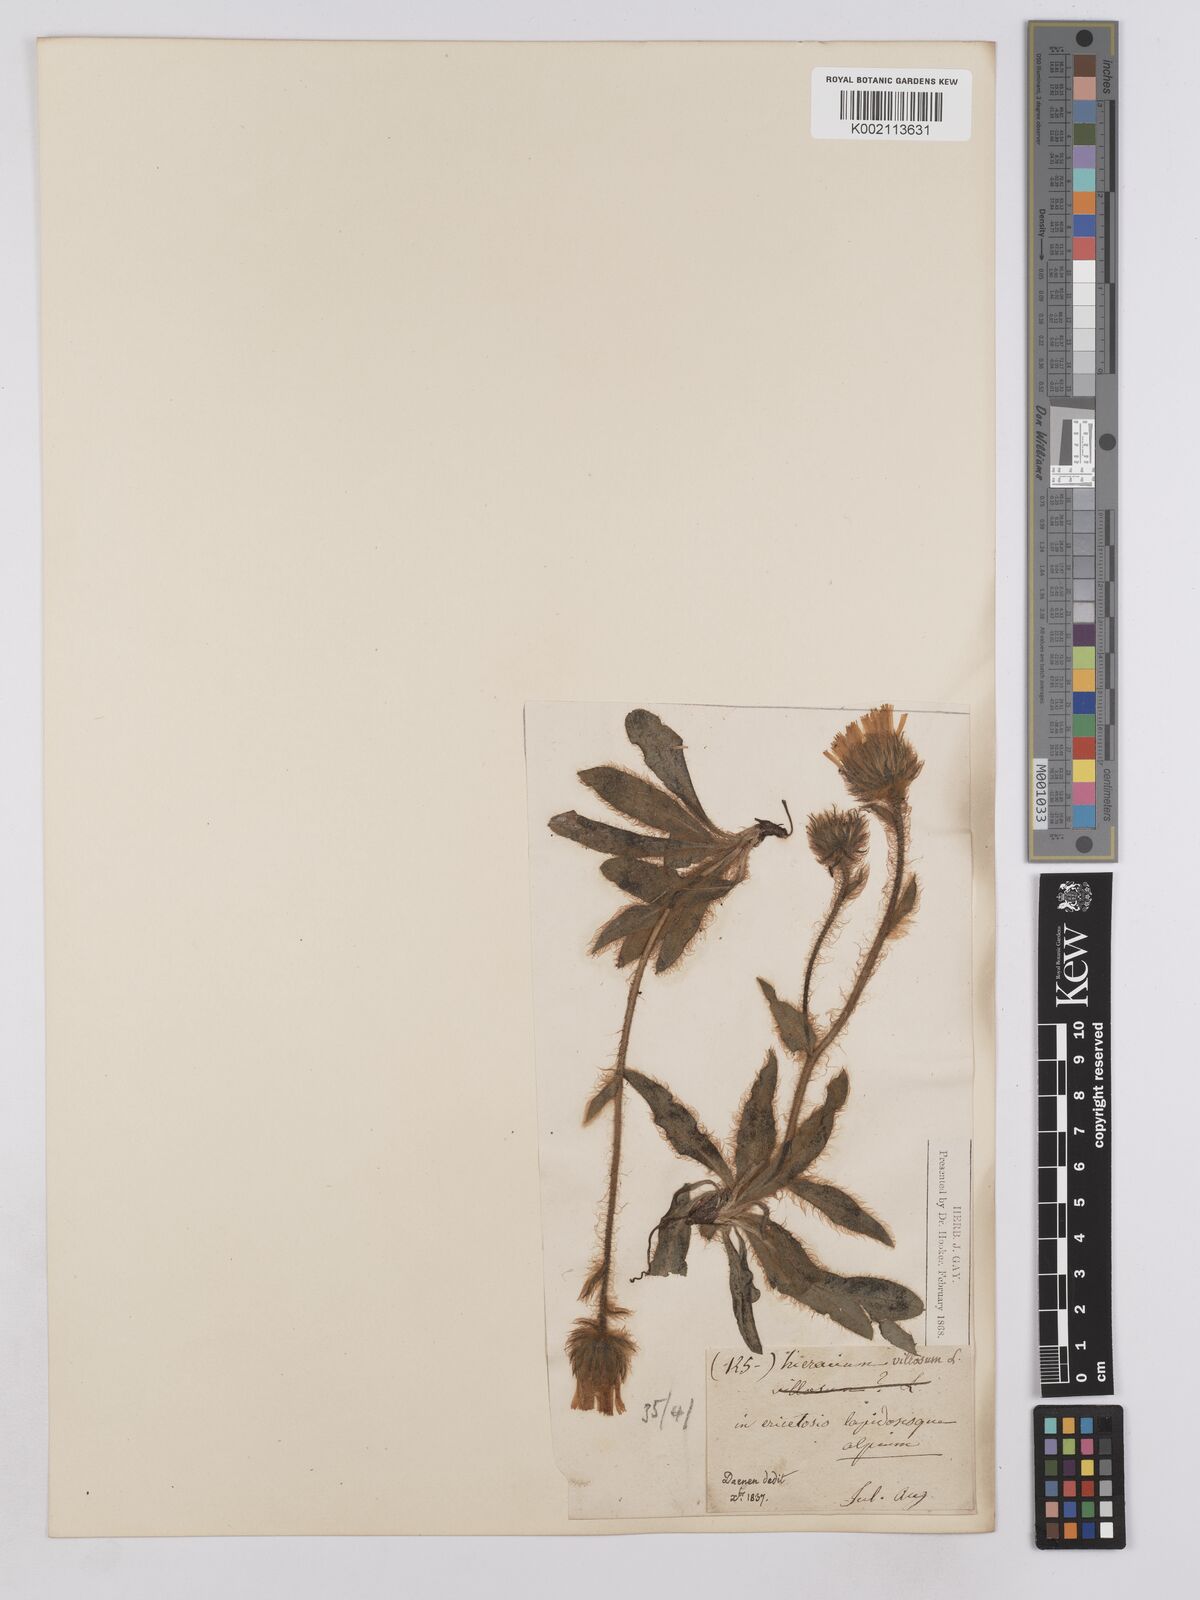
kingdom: Plantae
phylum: Tracheophyta
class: Magnoliopsida
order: Asterales
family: Asteraceae
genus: Hieracium
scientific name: Hieracium villosum
